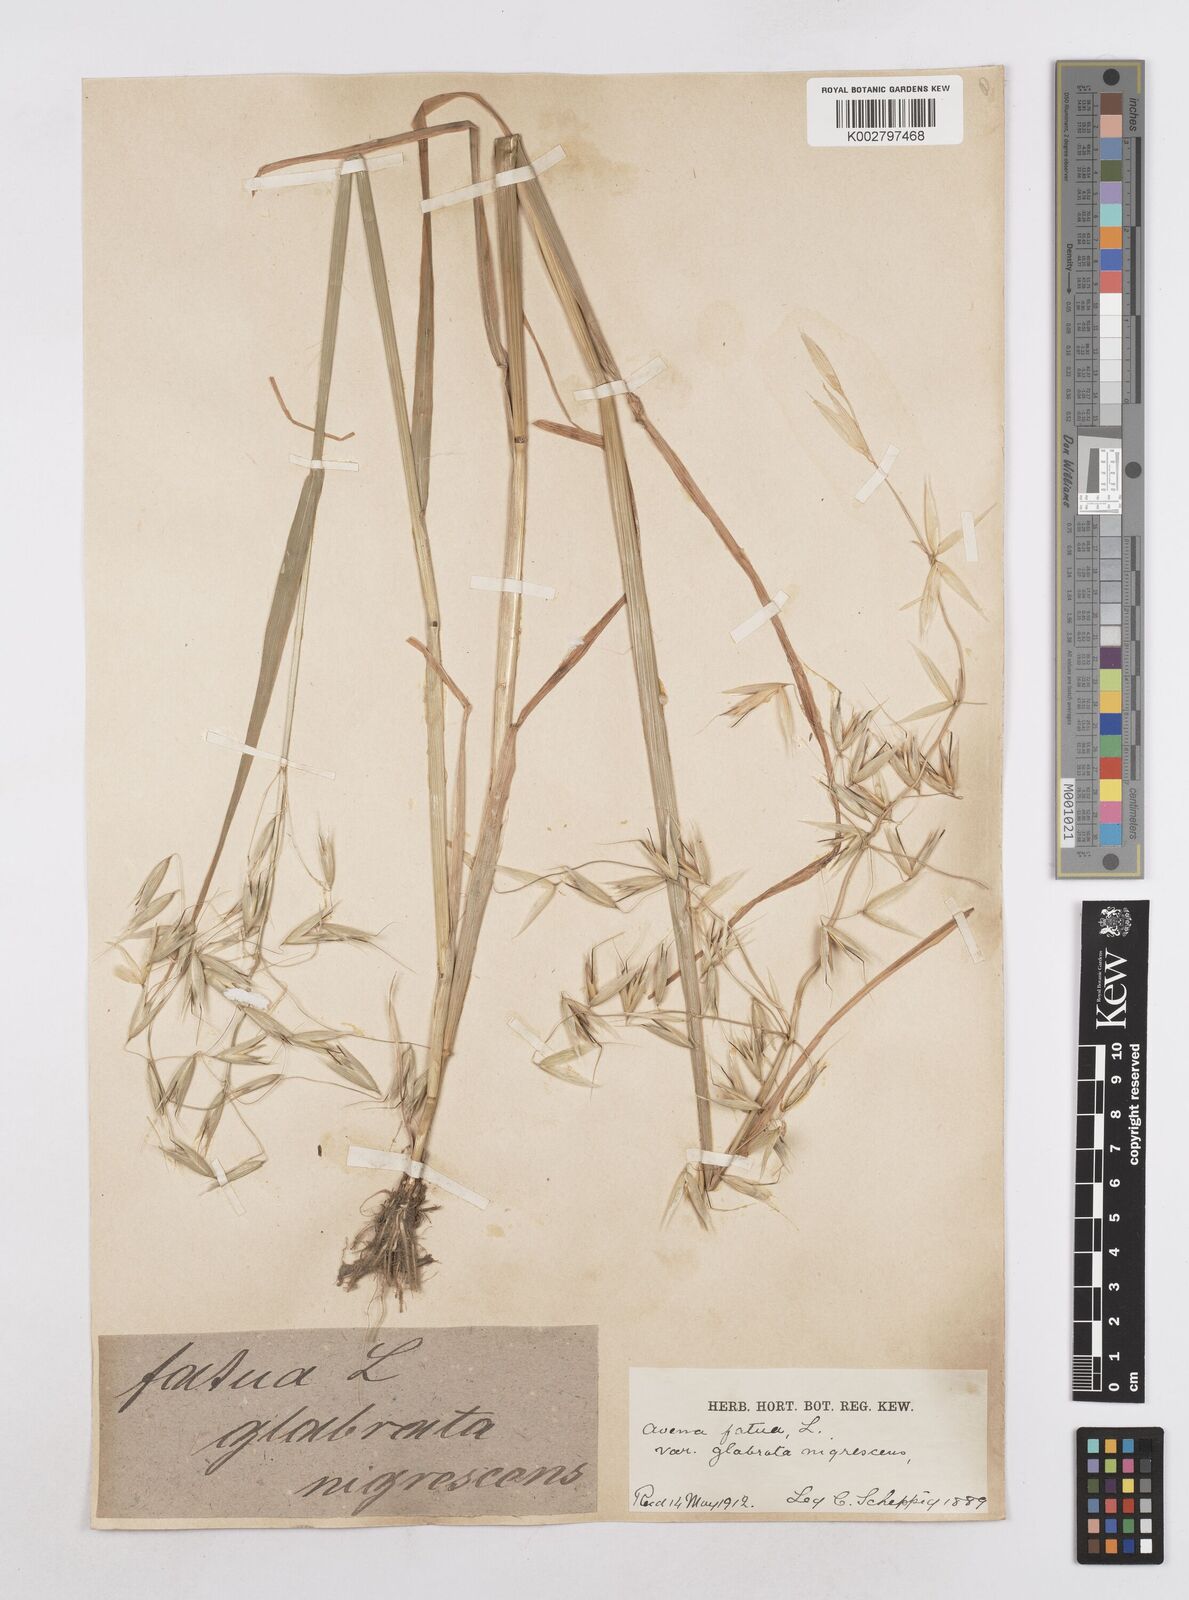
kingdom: Plantae
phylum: Tracheophyta
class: Liliopsida
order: Poales
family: Poaceae
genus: Avena
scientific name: Avena fatua
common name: Wild oat
